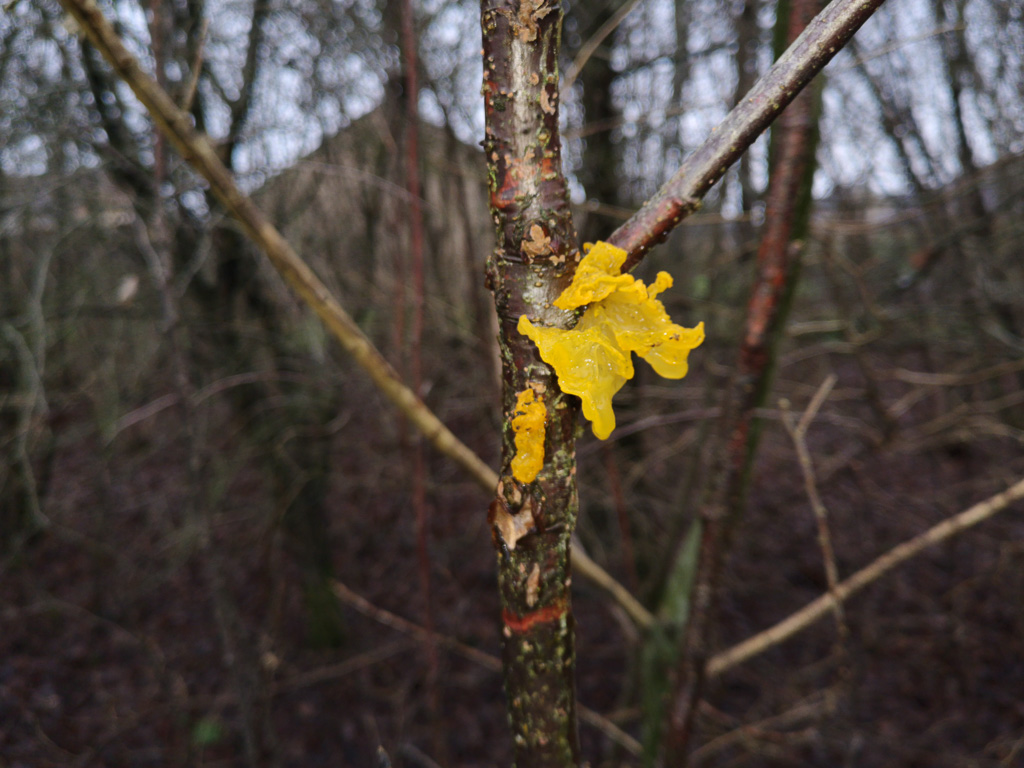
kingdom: Fungi
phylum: Basidiomycota
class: Tremellomycetes
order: Tremellales
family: Tremellaceae
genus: Tremella
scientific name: Tremella mesenterica
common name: gul bævresvamp
